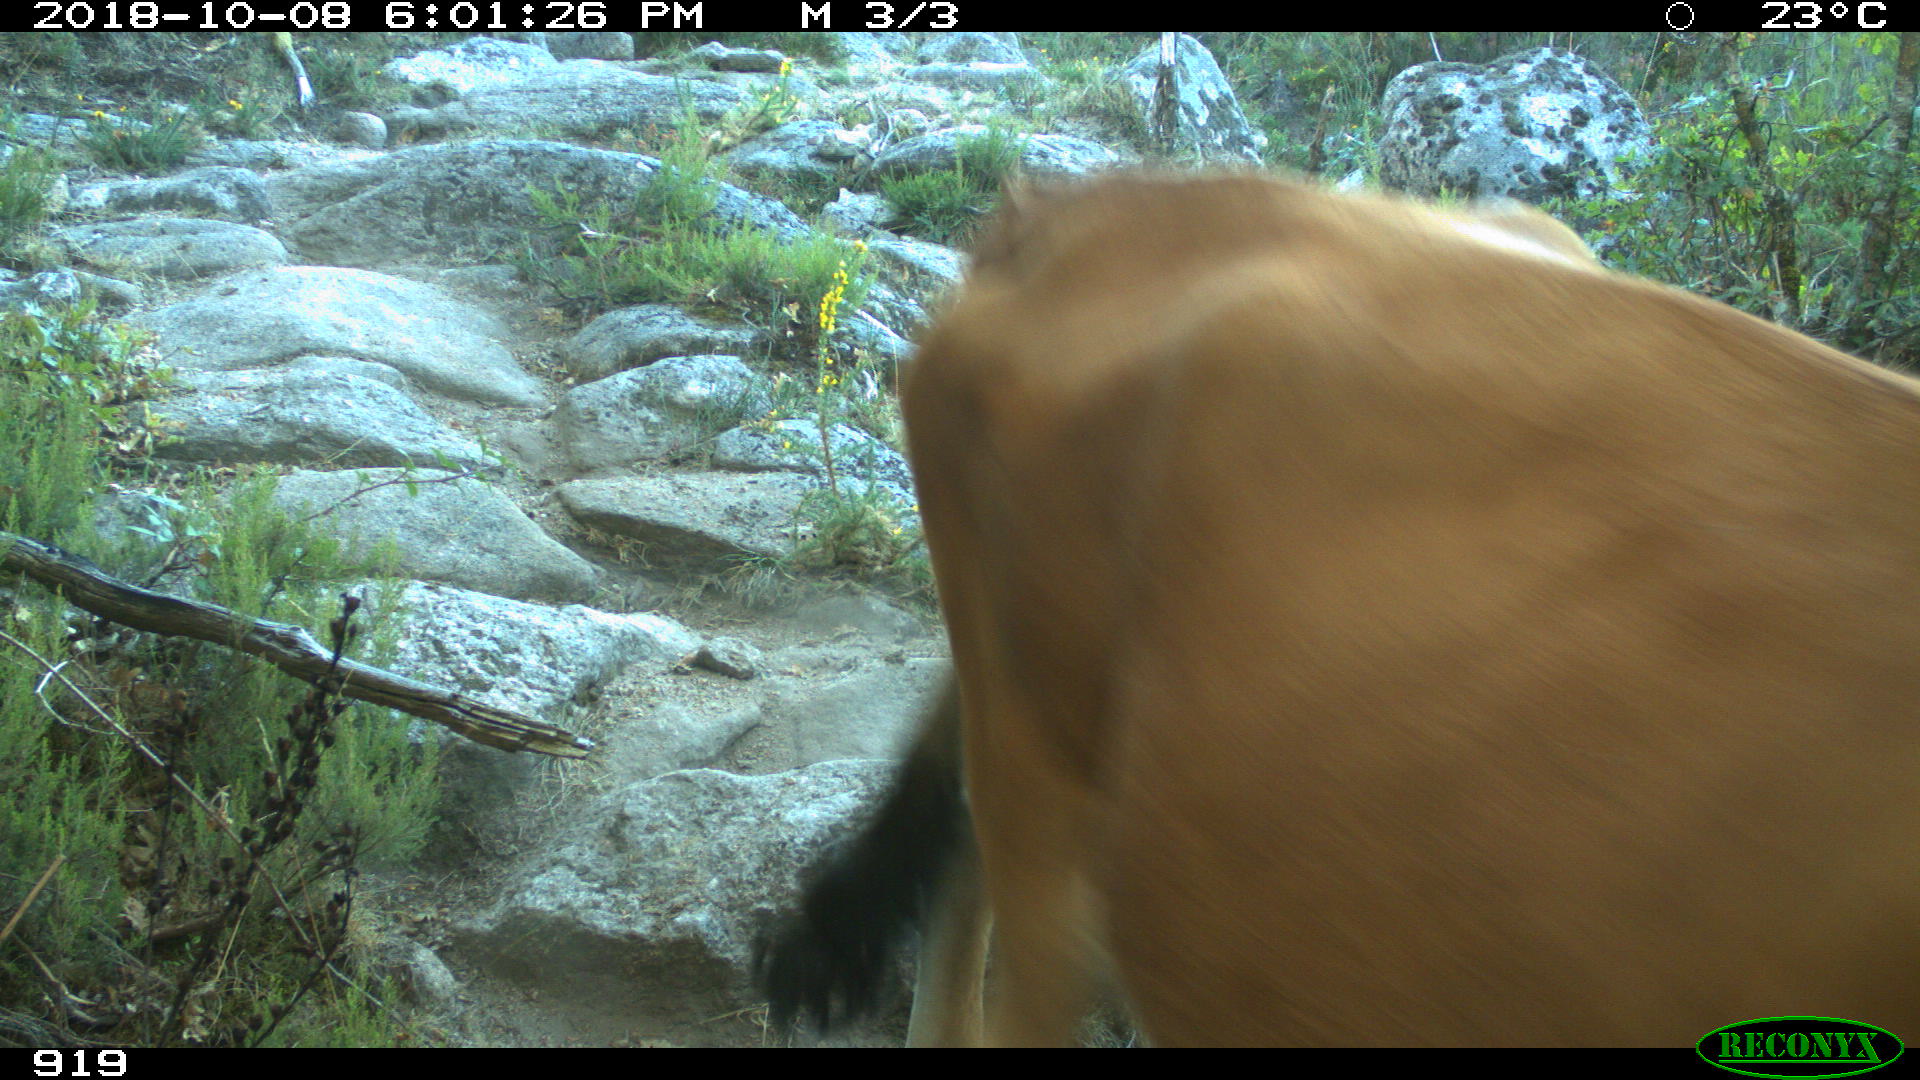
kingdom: Animalia
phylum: Chordata
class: Mammalia
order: Artiodactyla
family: Bovidae
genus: Bos
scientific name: Bos taurus
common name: Domesticated cattle
